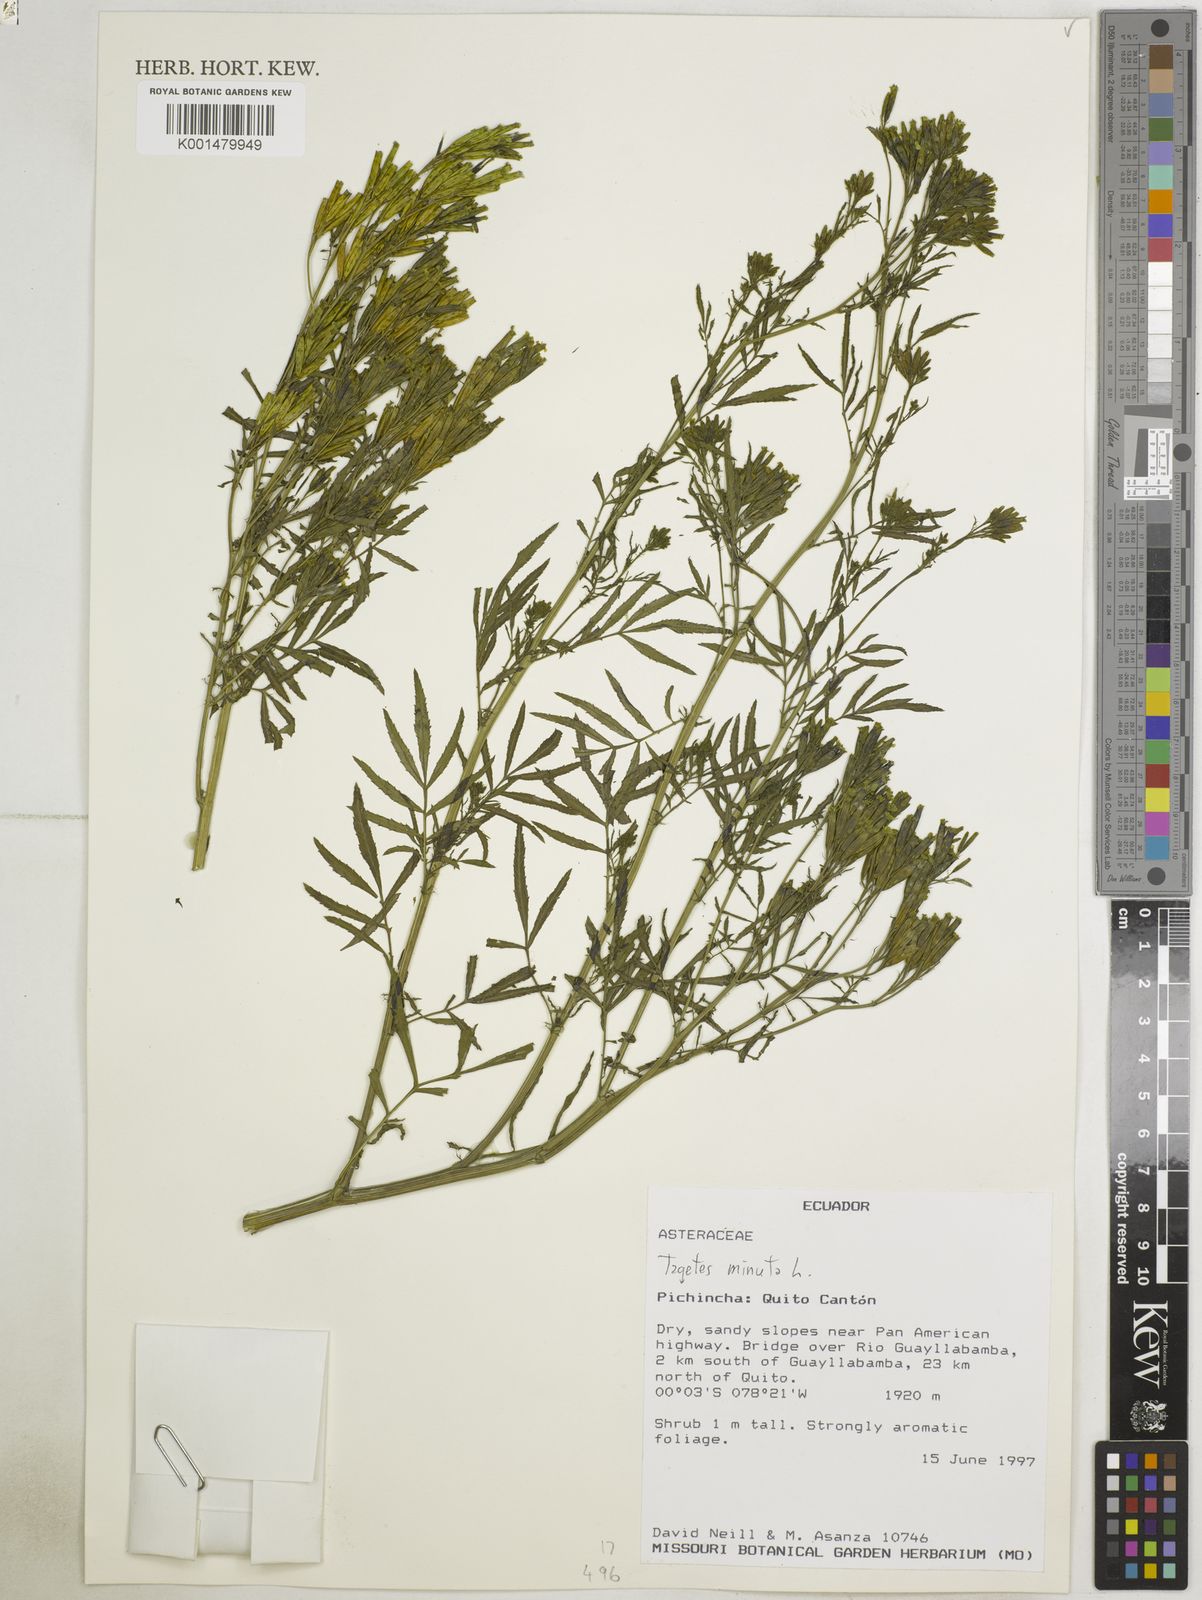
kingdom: Plantae
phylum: Tracheophyta
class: Magnoliopsida
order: Asterales
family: Asteraceae
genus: Tagetes
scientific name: Tagetes minuta
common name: Muster john henry
